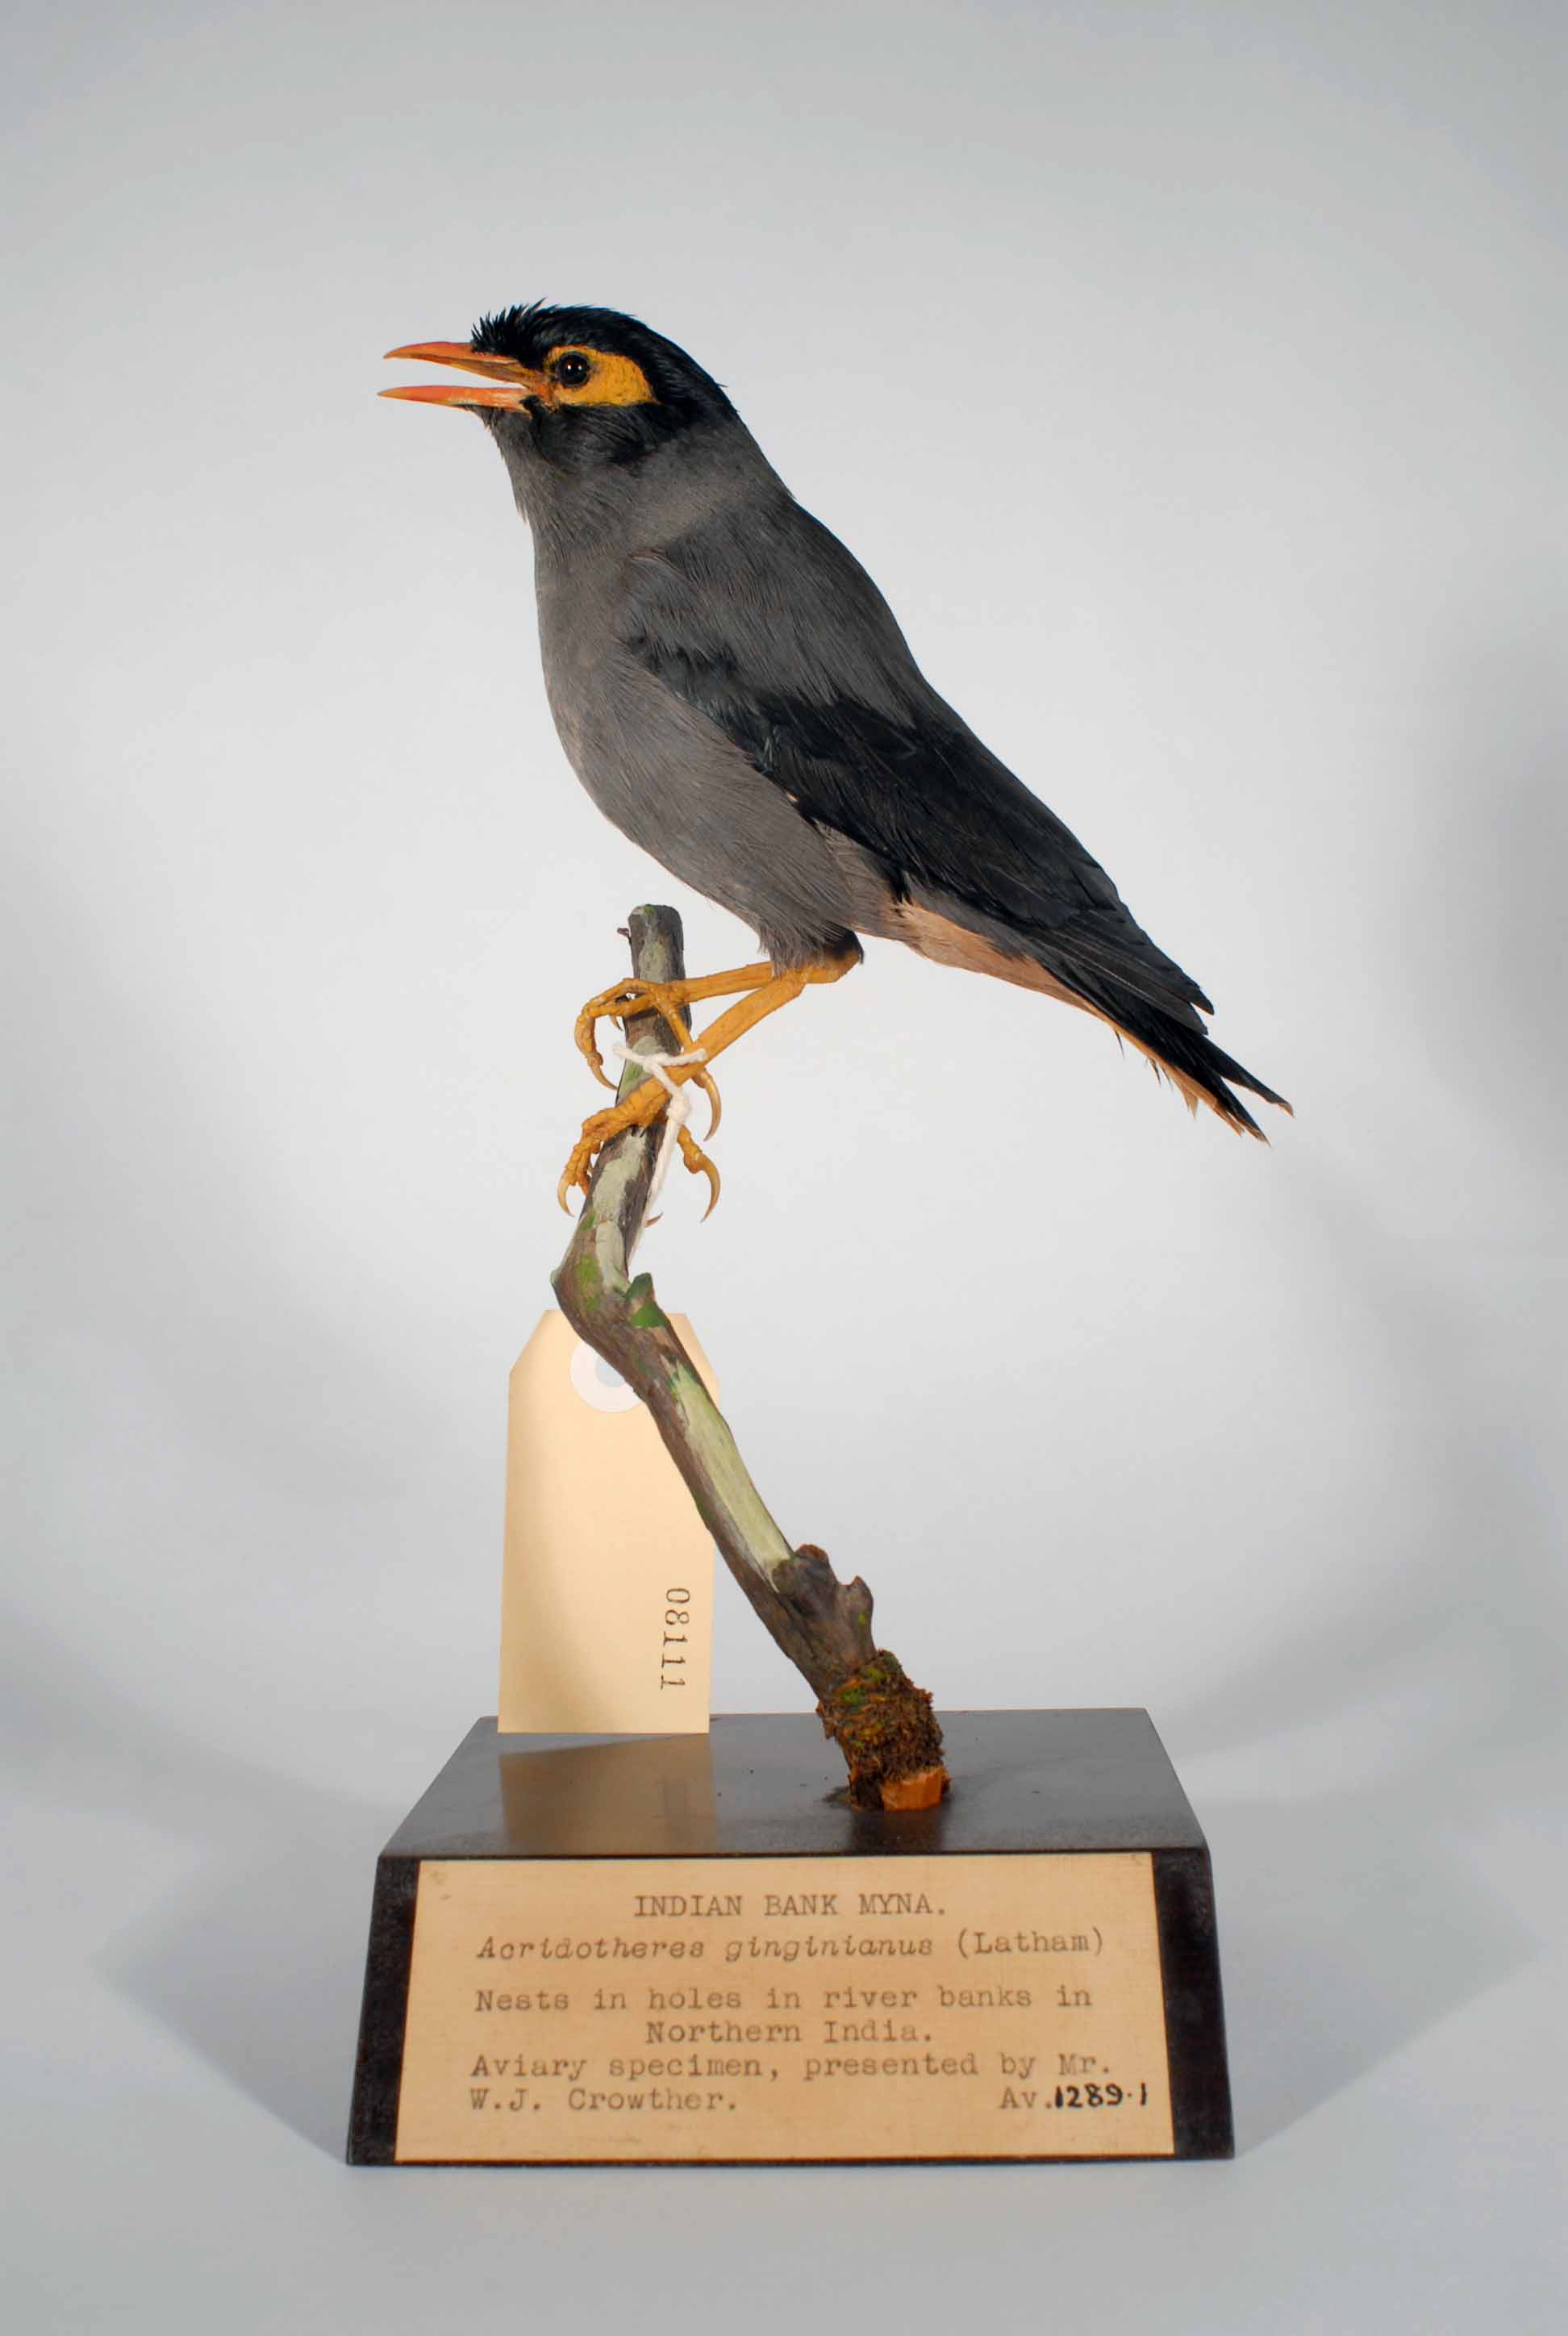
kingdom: Animalia
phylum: Chordata
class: Aves
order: Passeriformes
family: Sturnidae
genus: Acridotheres
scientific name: Acridotheres ginginianus
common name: Bank myna
